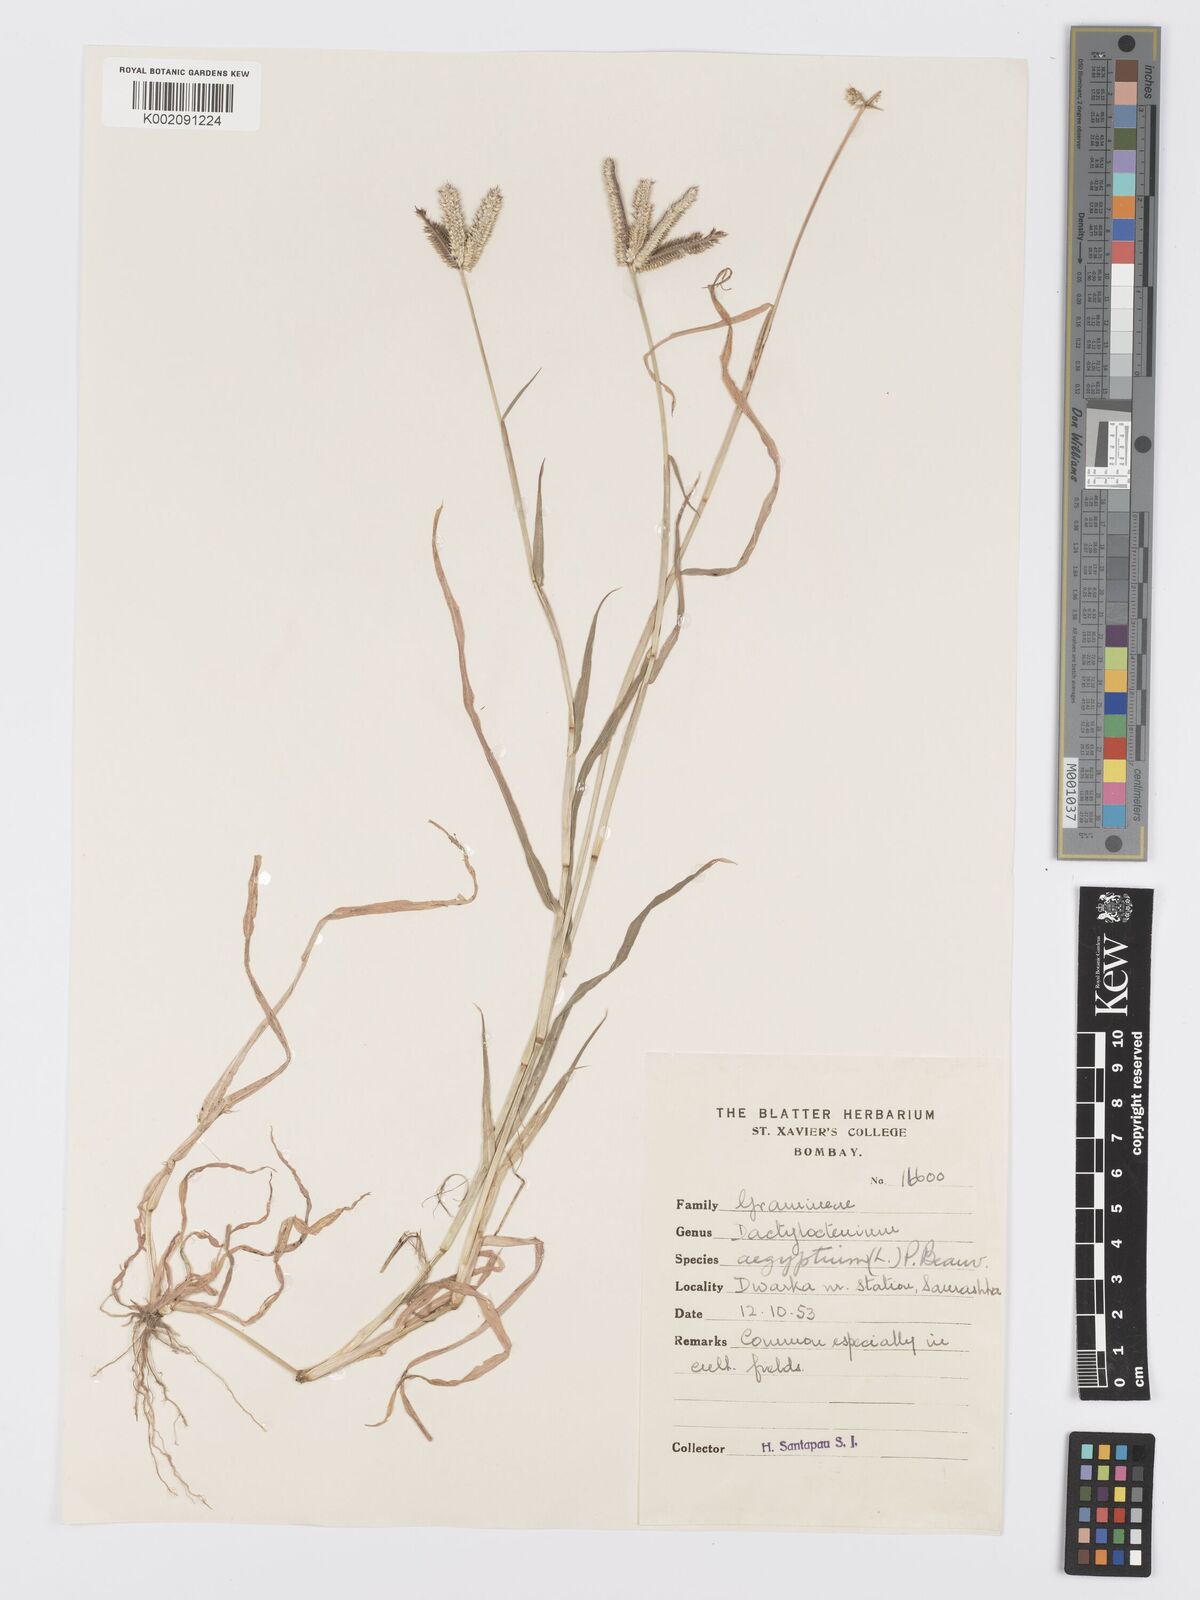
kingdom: Plantae
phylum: Tracheophyta
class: Liliopsida
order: Poales
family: Poaceae
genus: Dactyloctenium
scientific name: Dactyloctenium aegyptium
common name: Egyptian grass
